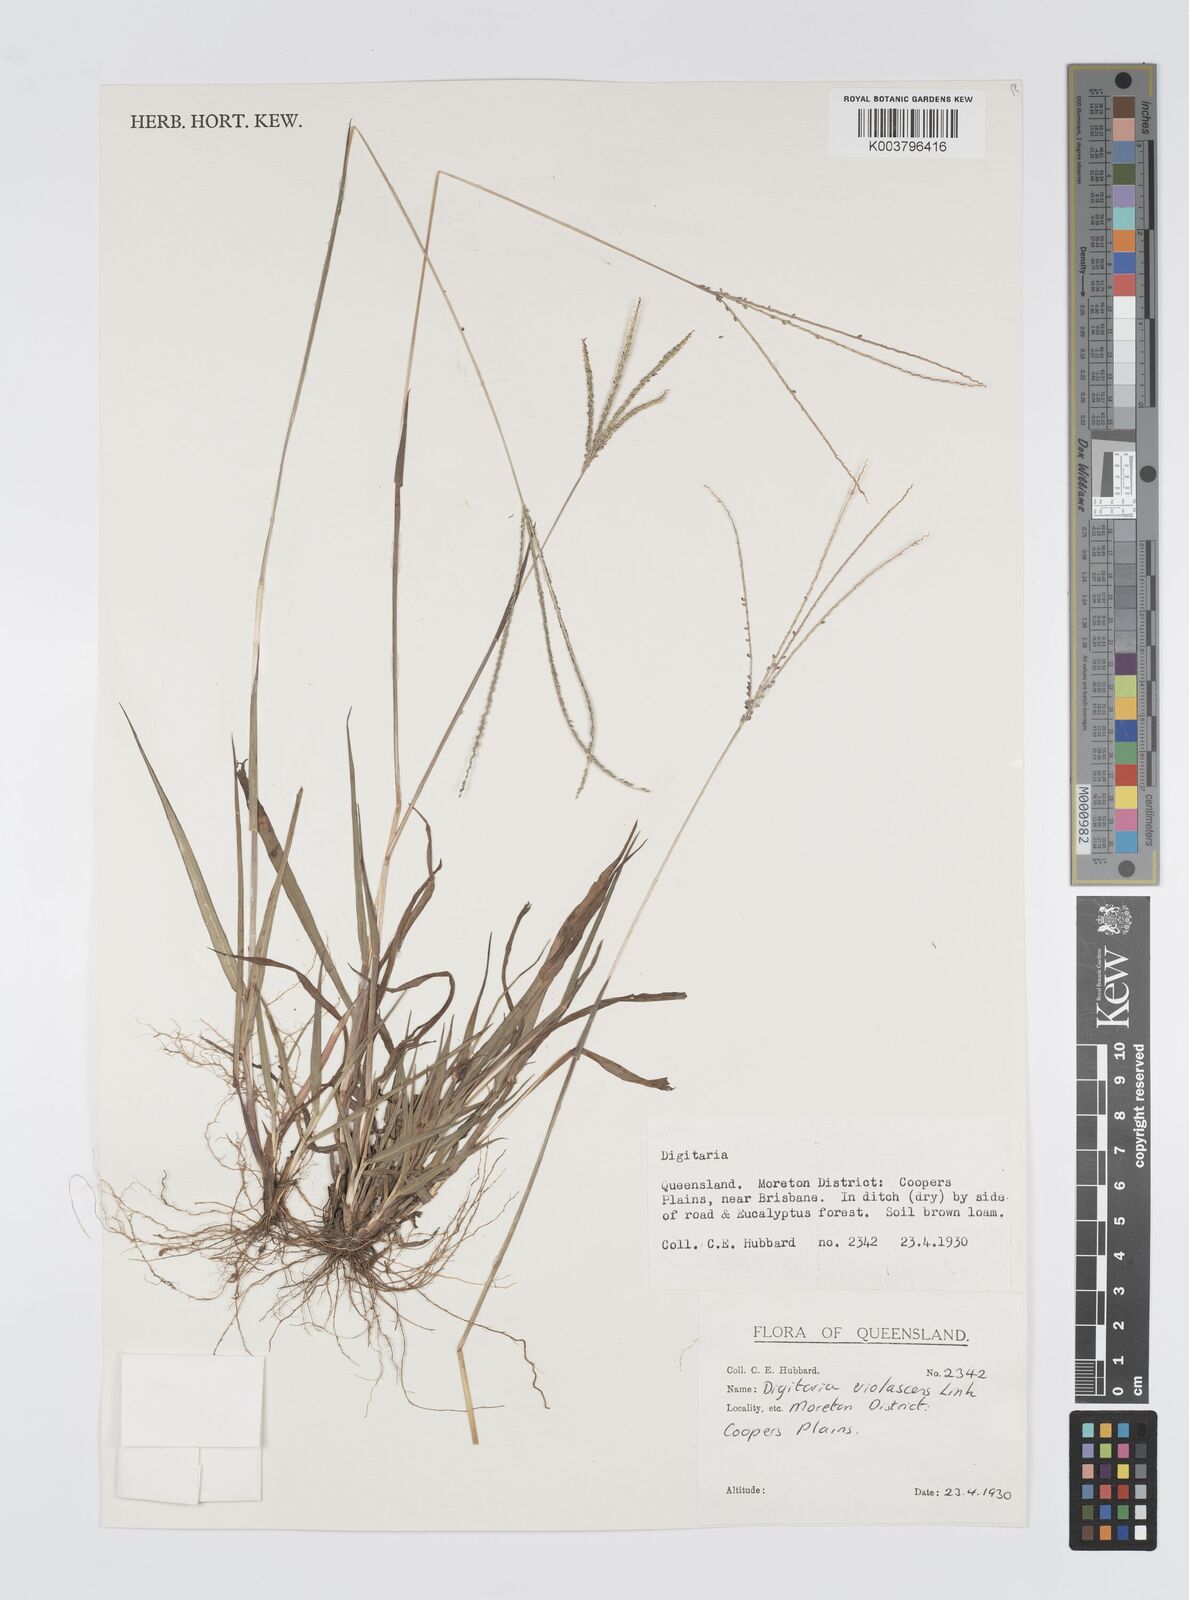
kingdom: Plantae
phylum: Tracheophyta
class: Liliopsida
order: Poales
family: Poaceae
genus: Digitaria
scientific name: Digitaria violascens
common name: Violet crabgrass
